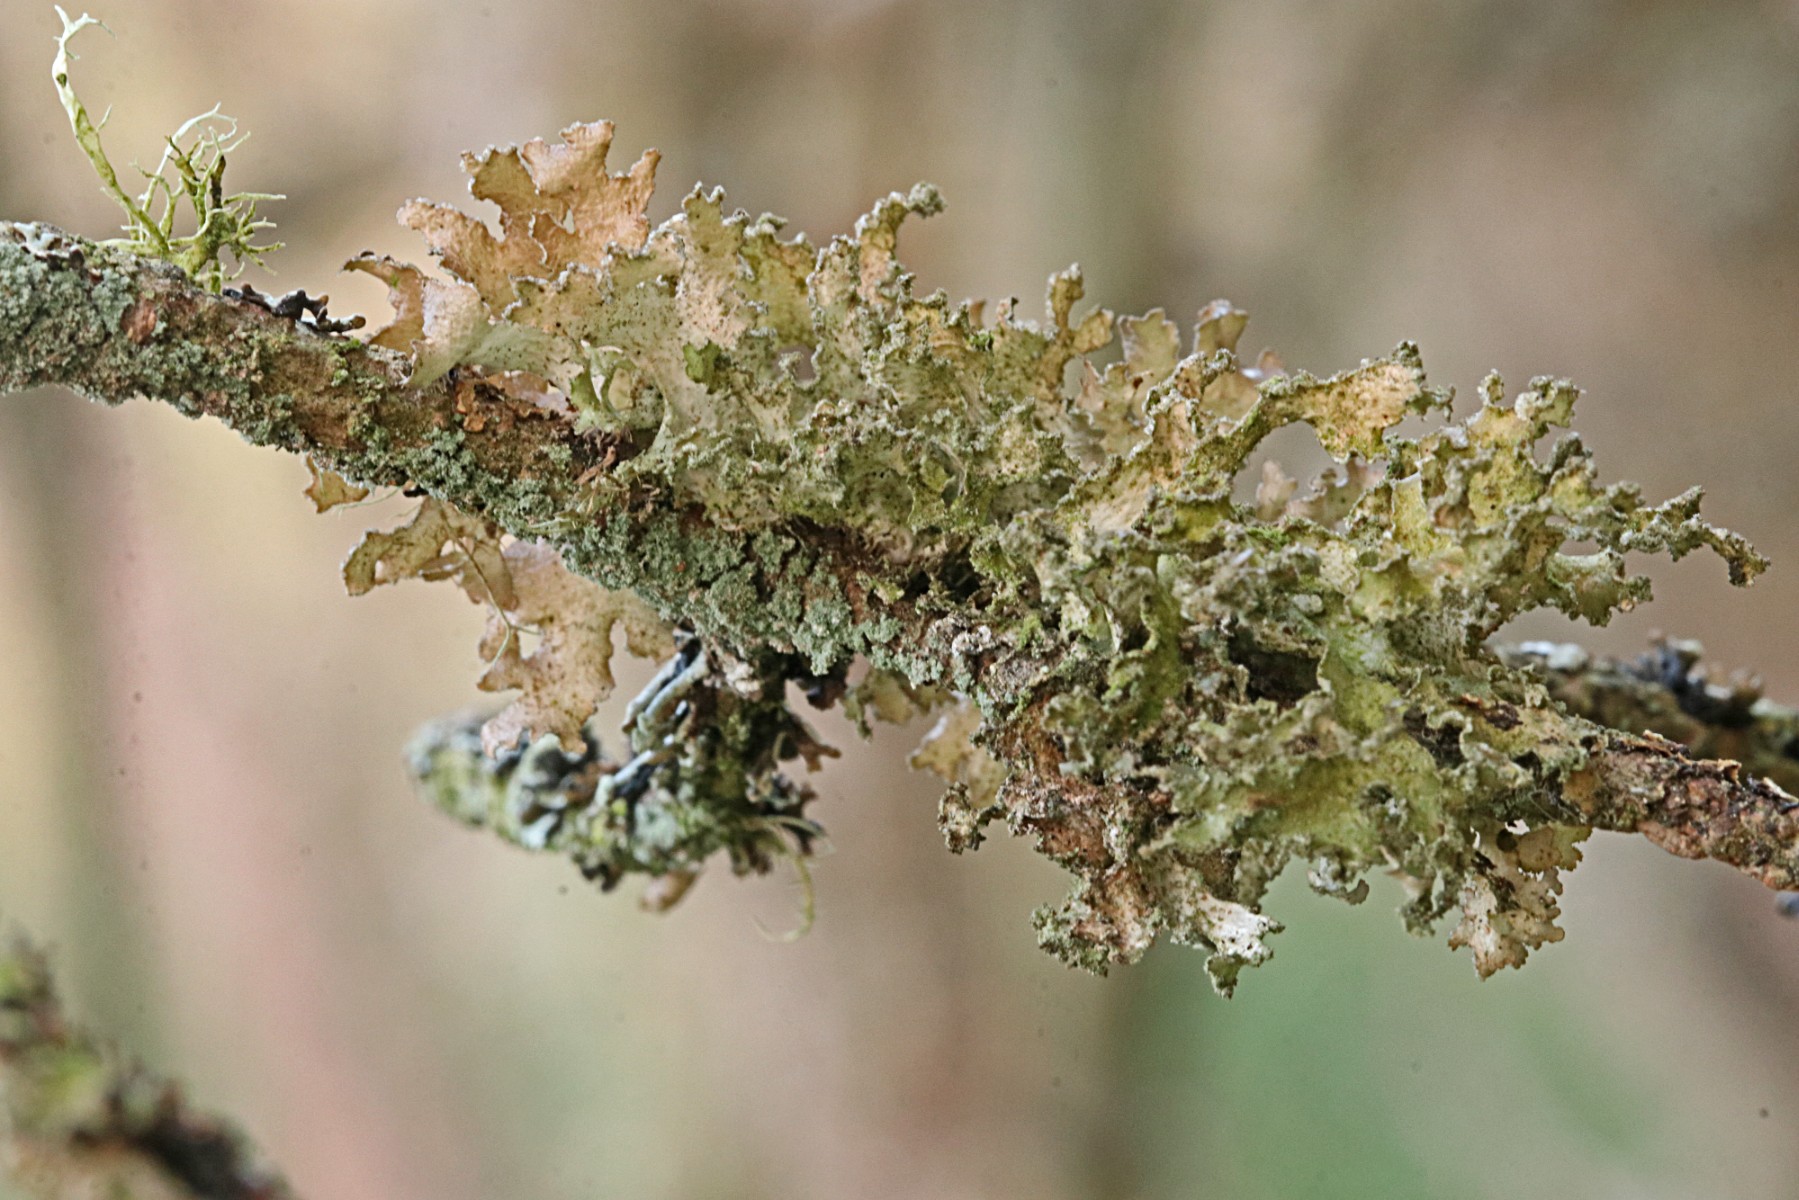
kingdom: Fungi
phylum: Ascomycota
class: Lecanoromycetes
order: Lecanorales
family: Parmeliaceae
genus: Nephromopsis
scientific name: Nephromopsis chlorophylla
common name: olivenbrun kruslav
